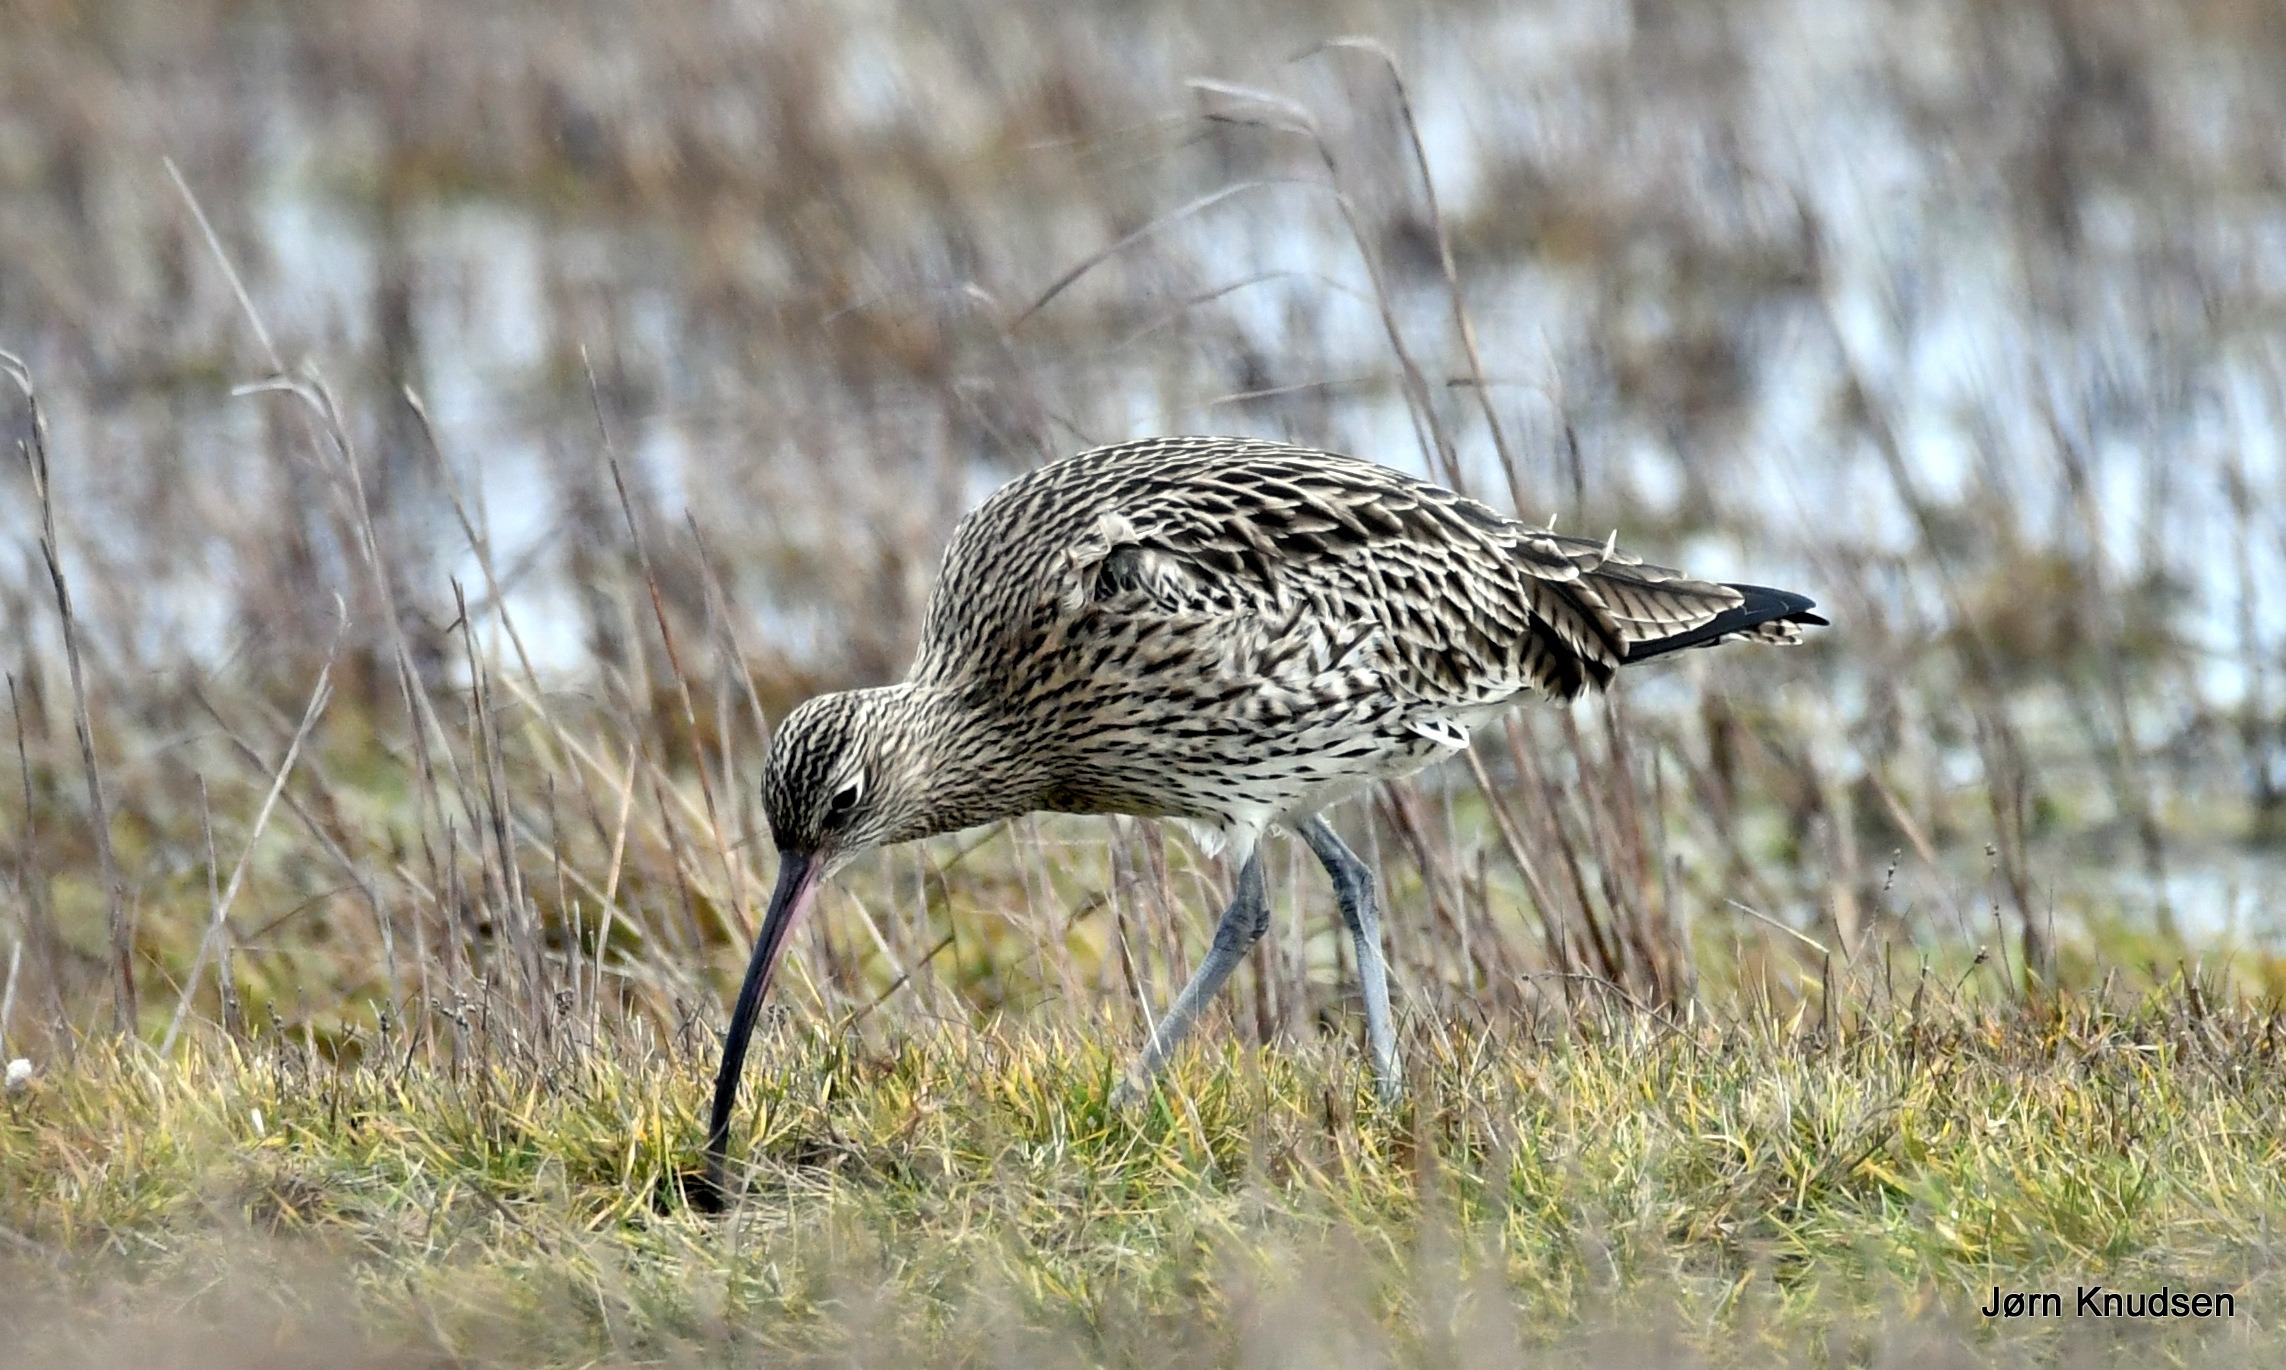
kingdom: Animalia
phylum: Chordata
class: Aves
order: Charadriiformes
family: Scolopacidae
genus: Numenius
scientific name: Numenius arquata
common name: Storspove
